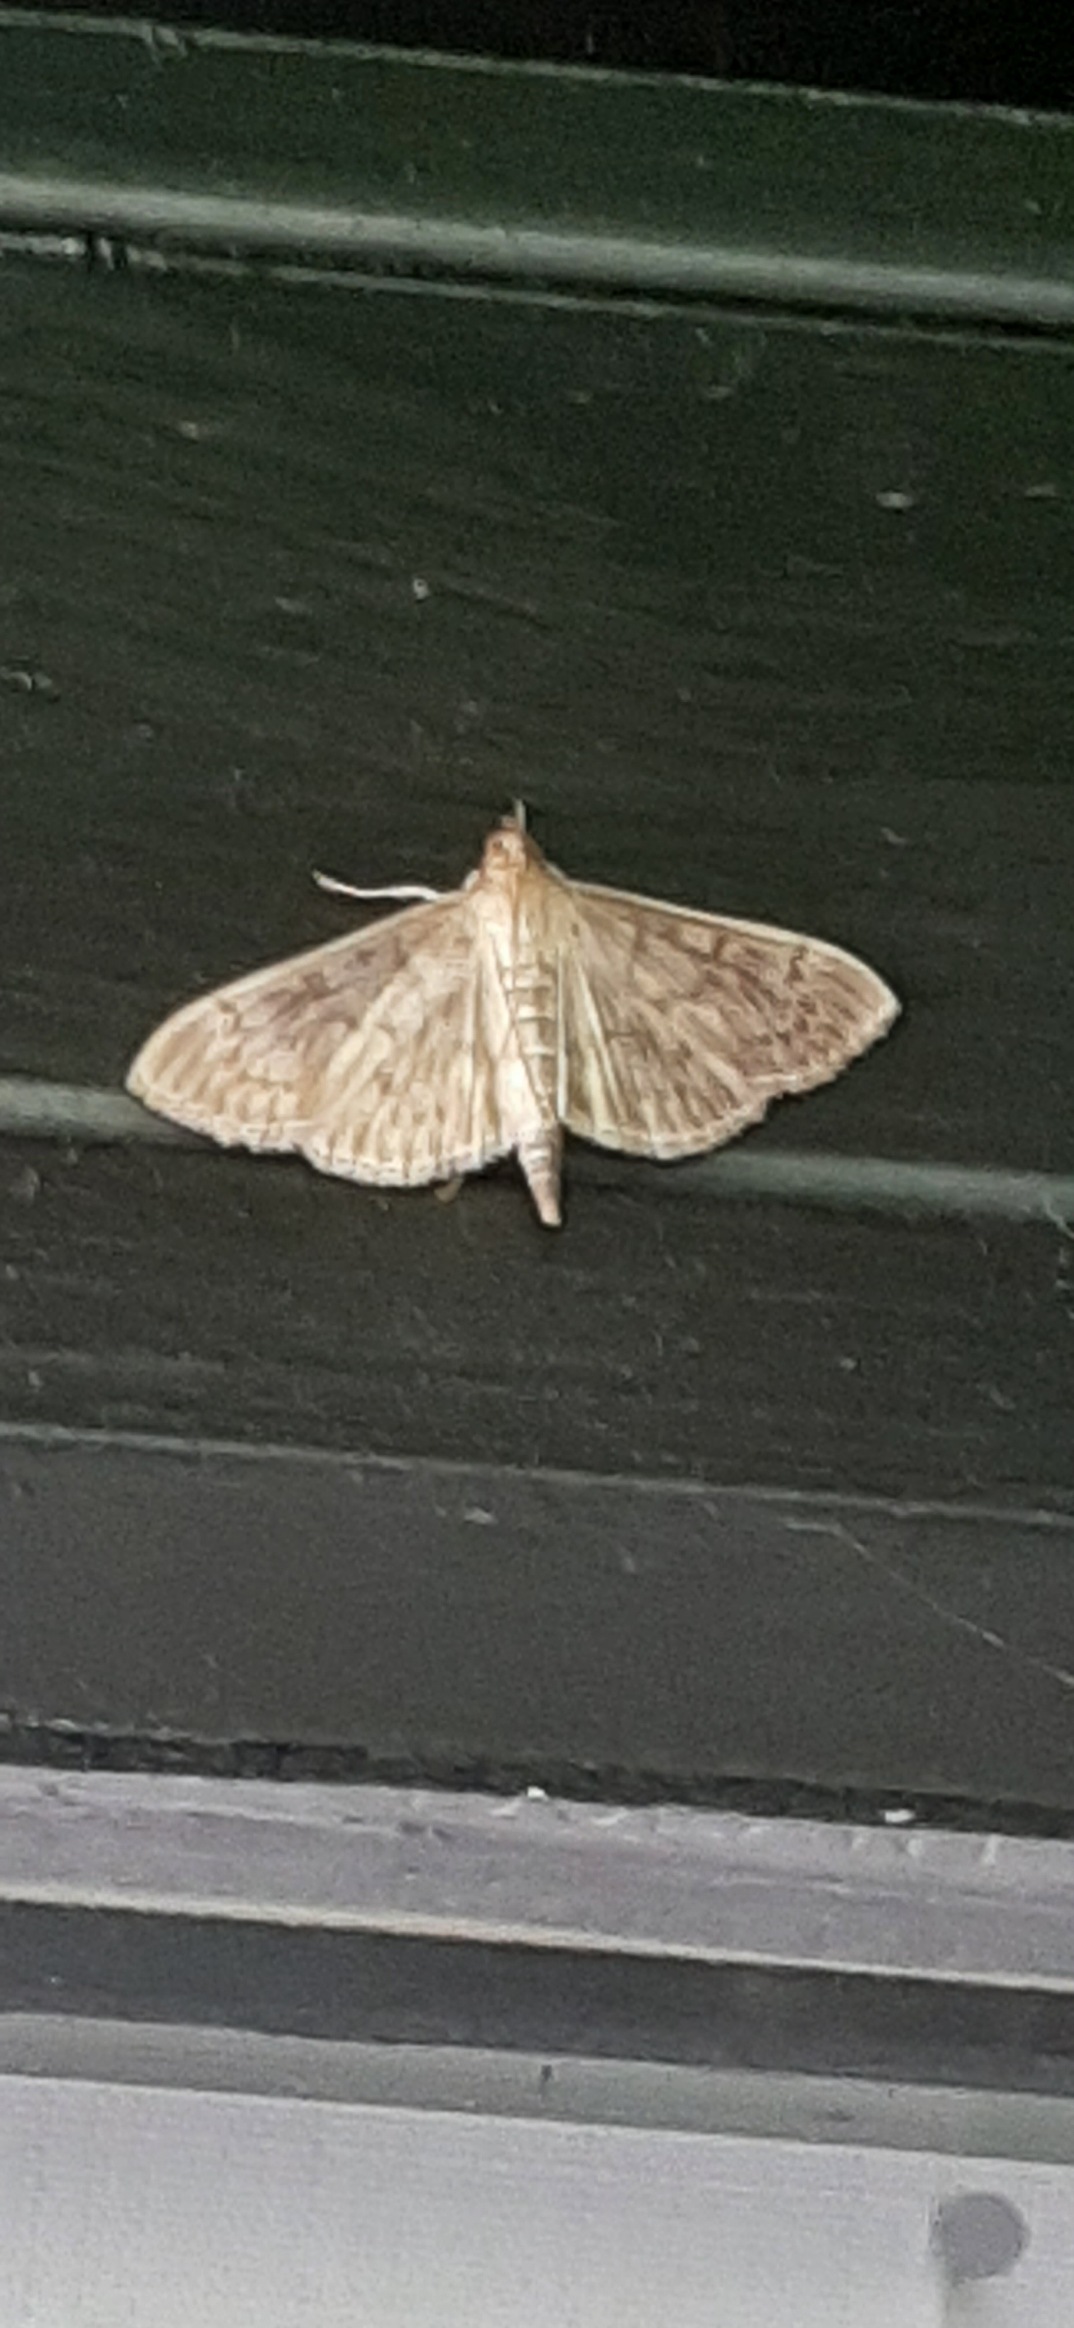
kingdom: Animalia
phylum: Arthropoda
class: Insecta
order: Lepidoptera
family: Crambidae
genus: Patania
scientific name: Patania ruralis
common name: Perlemorshalvmøl
